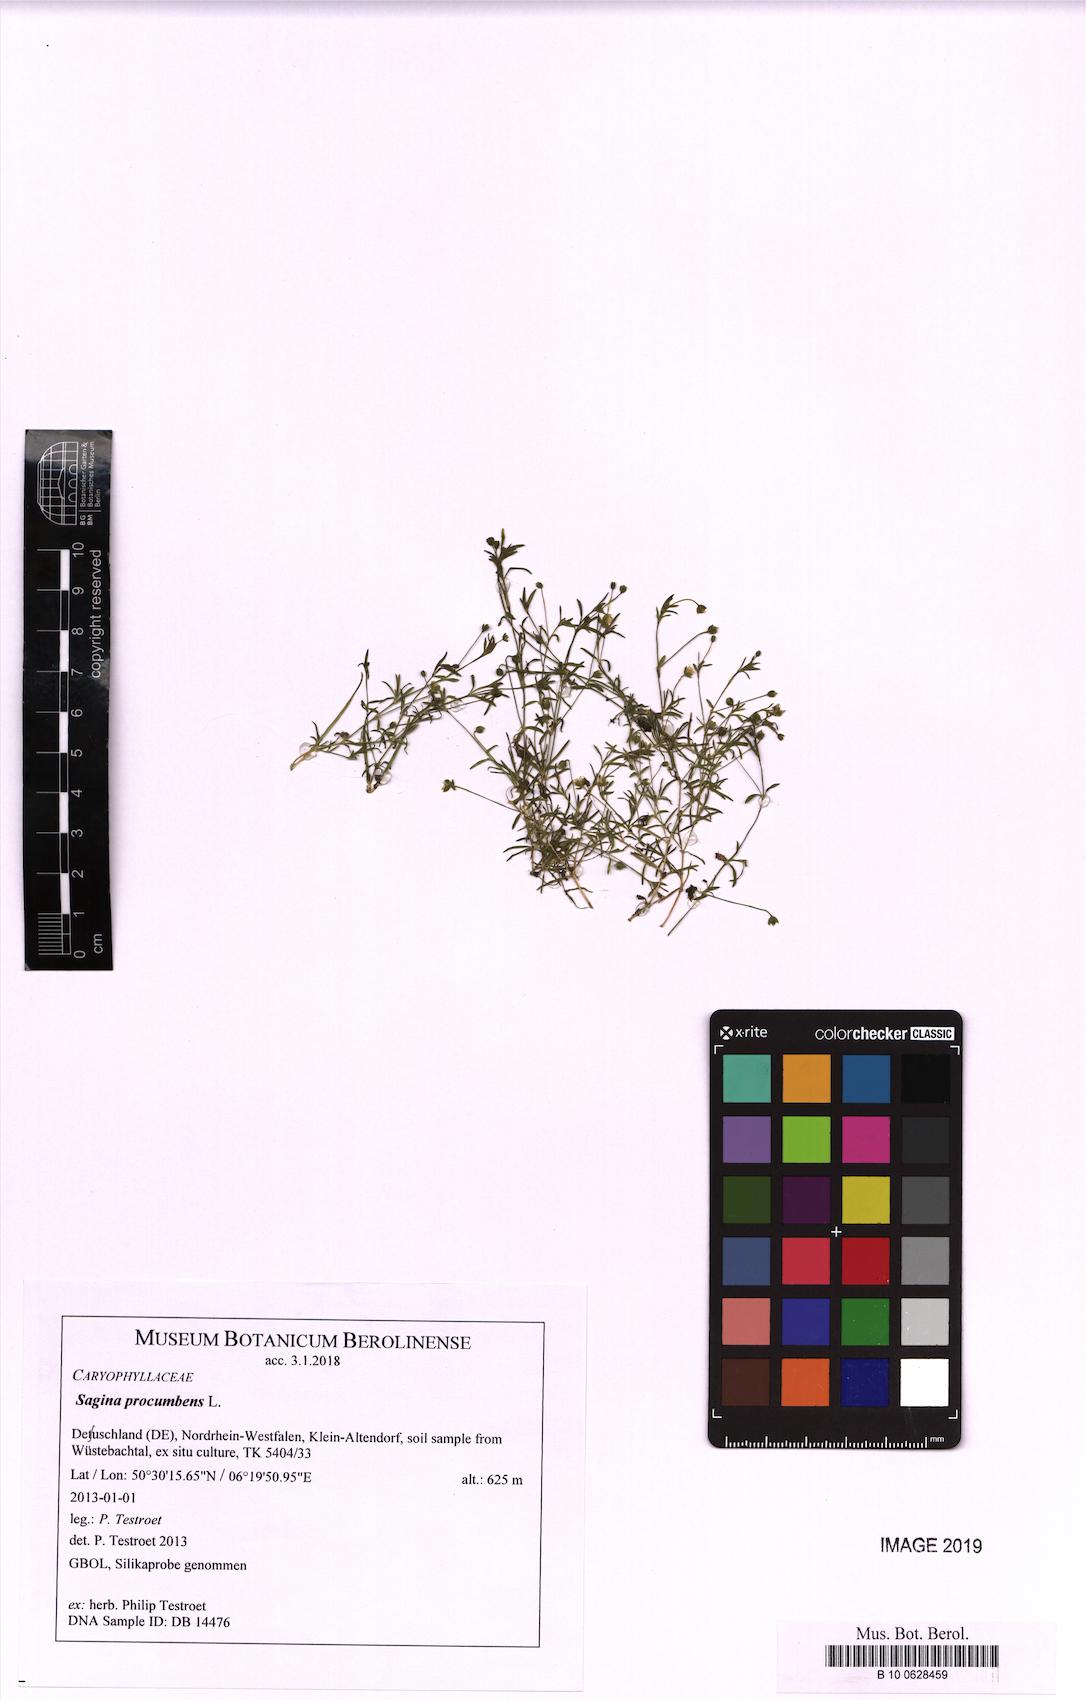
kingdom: Plantae
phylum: Tracheophyta
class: Magnoliopsida
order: Caryophyllales
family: Caryophyllaceae
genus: Sagina
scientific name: Sagina procumbens
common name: Procumbent pearlwort
